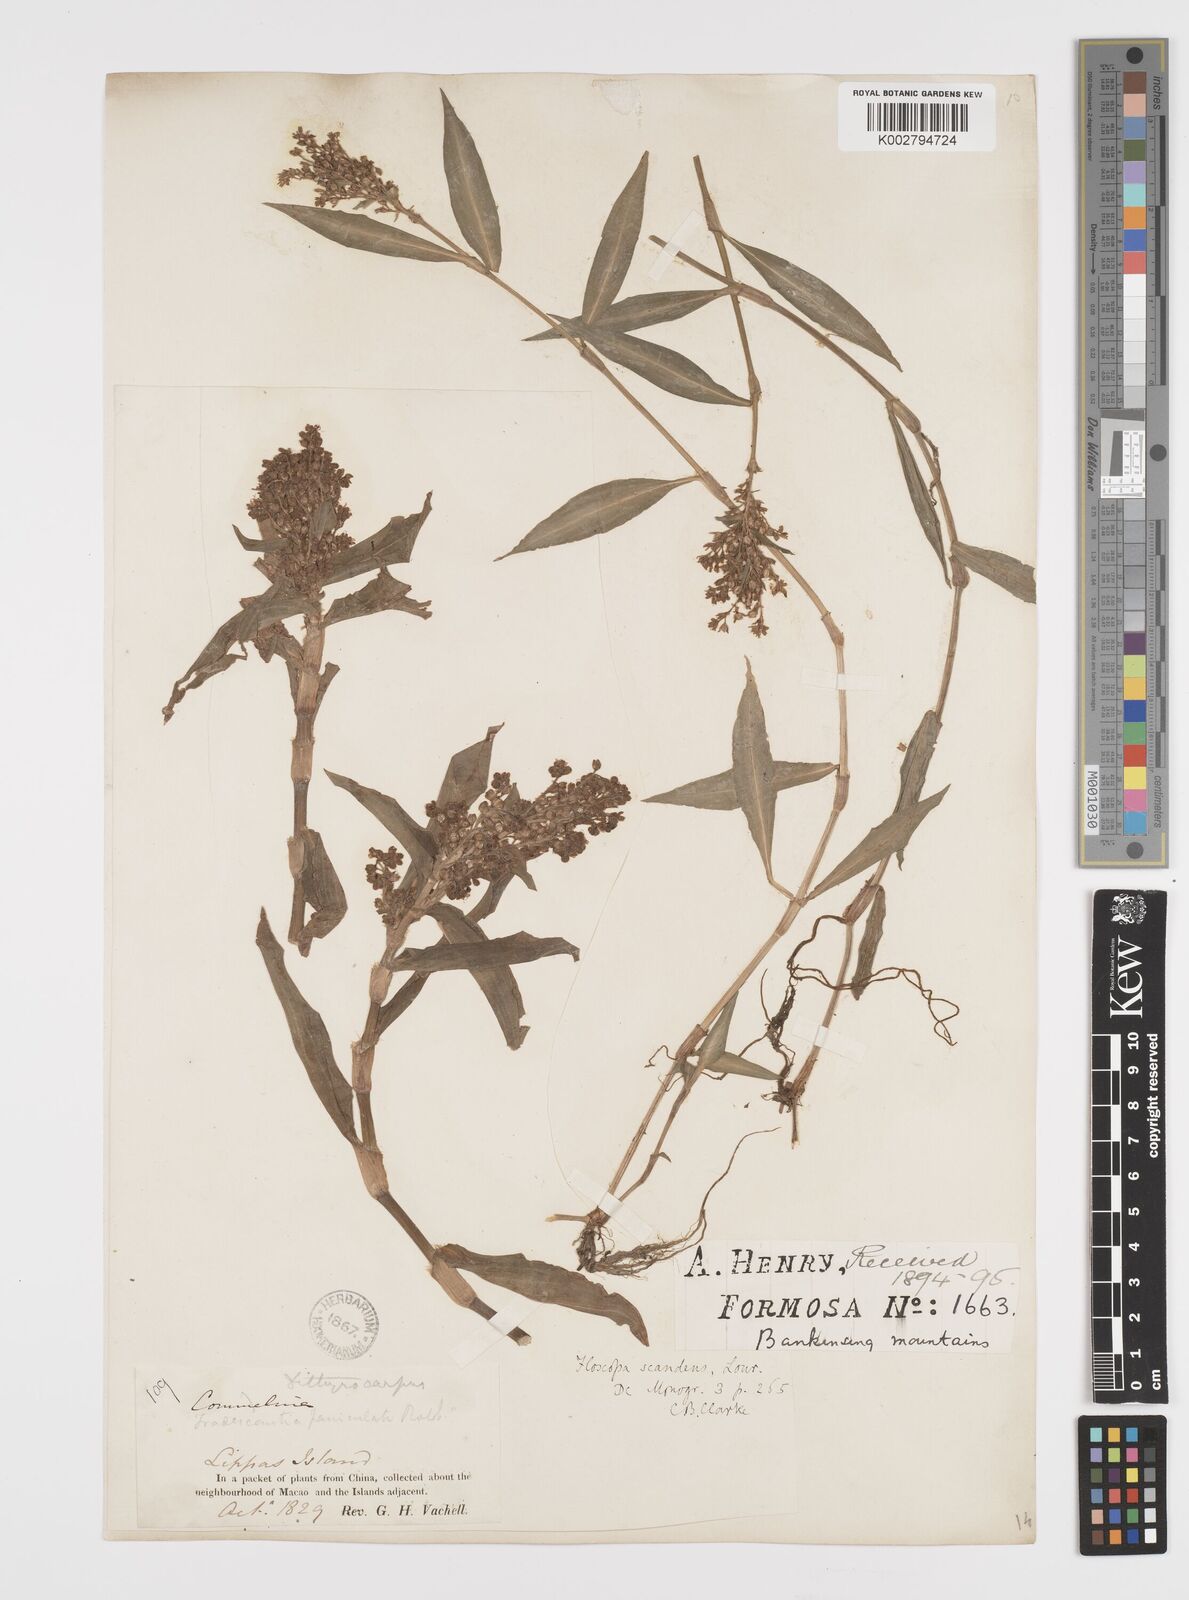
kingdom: Plantae
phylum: Tracheophyta
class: Liliopsida
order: Commelinales
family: Commelinaceae
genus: Floscopa
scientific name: Floscopa scandens
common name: Climbing flower cup
